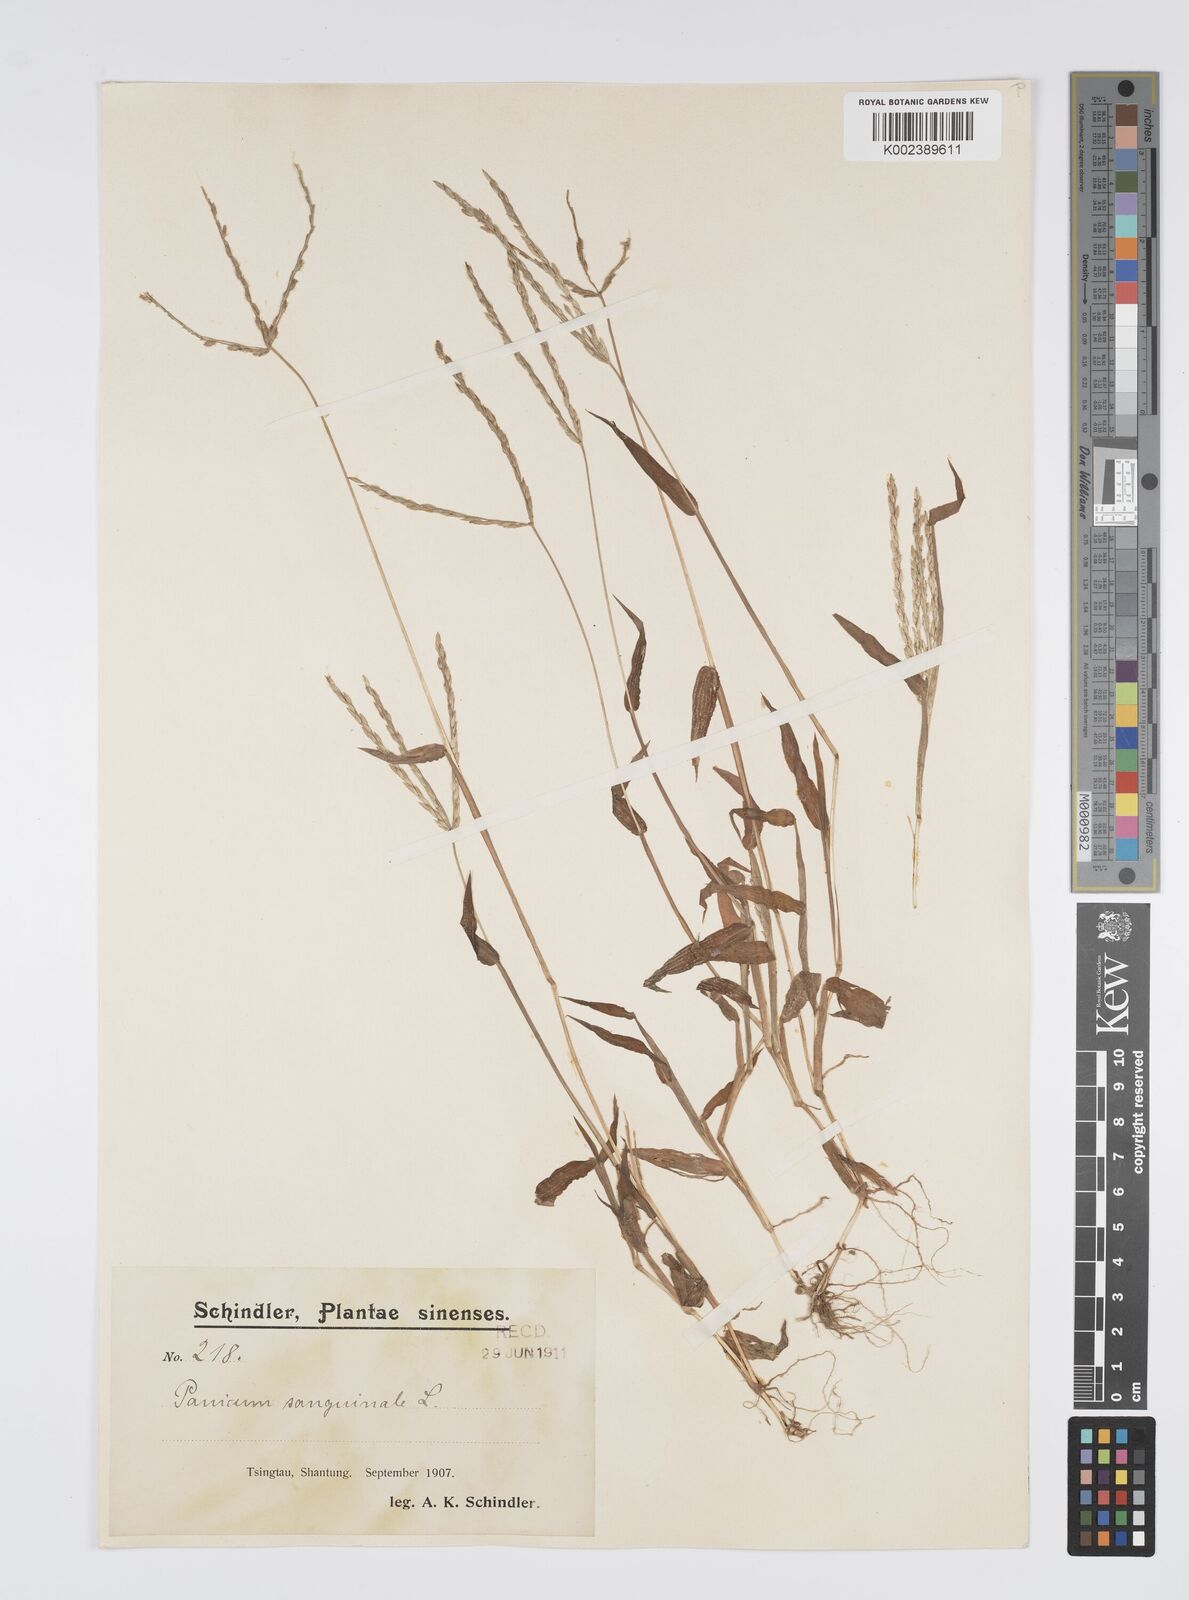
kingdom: Plantae
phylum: Tracheophyta
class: Liliopsida
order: Poales
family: Poaceae
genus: Digitaria
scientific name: Digitaria ciliaris
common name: Tropical finger-grass
